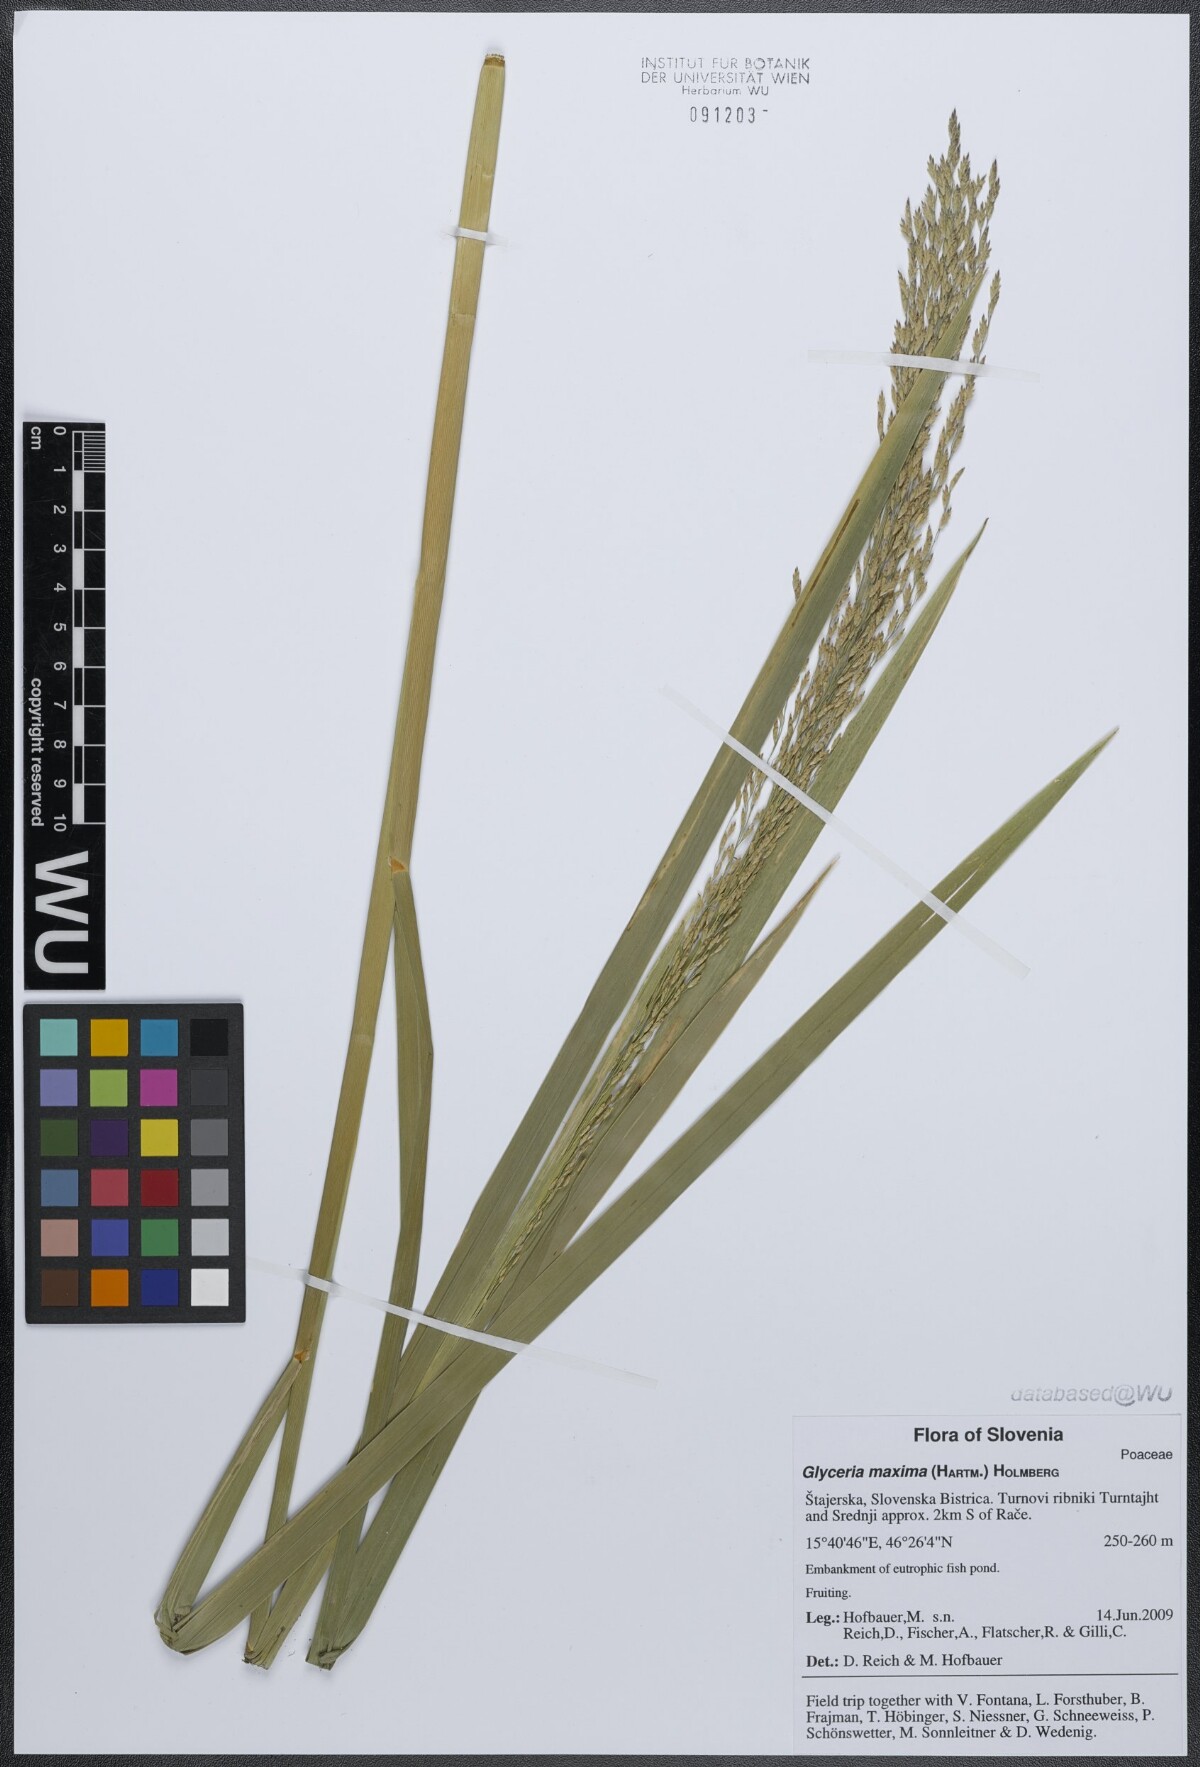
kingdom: Plantae
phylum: Tracheophyta
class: Liliopsida
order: Poales
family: Poaceae
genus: Glyceria
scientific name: Glyceria maxima
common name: Reed mannagrass
